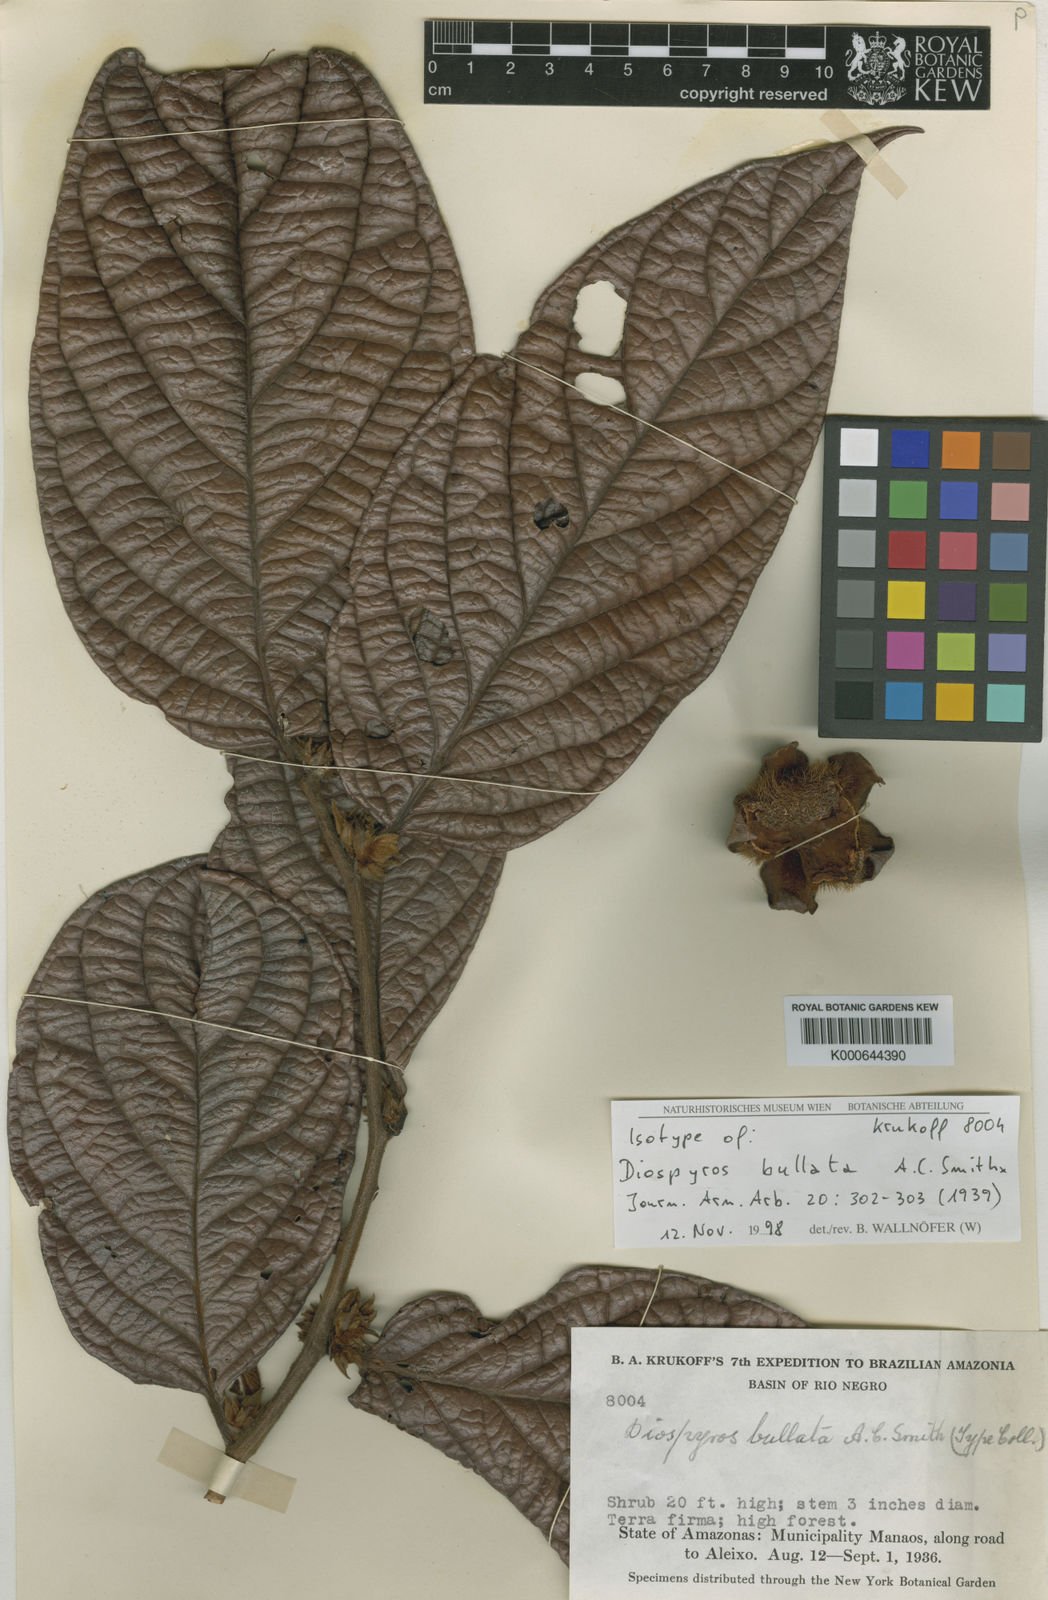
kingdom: Plantae
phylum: Tracheophyta
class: Magnoliopsida
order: Ericales
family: Ebenaceae
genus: Diospyros
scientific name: Diospyros bullata
